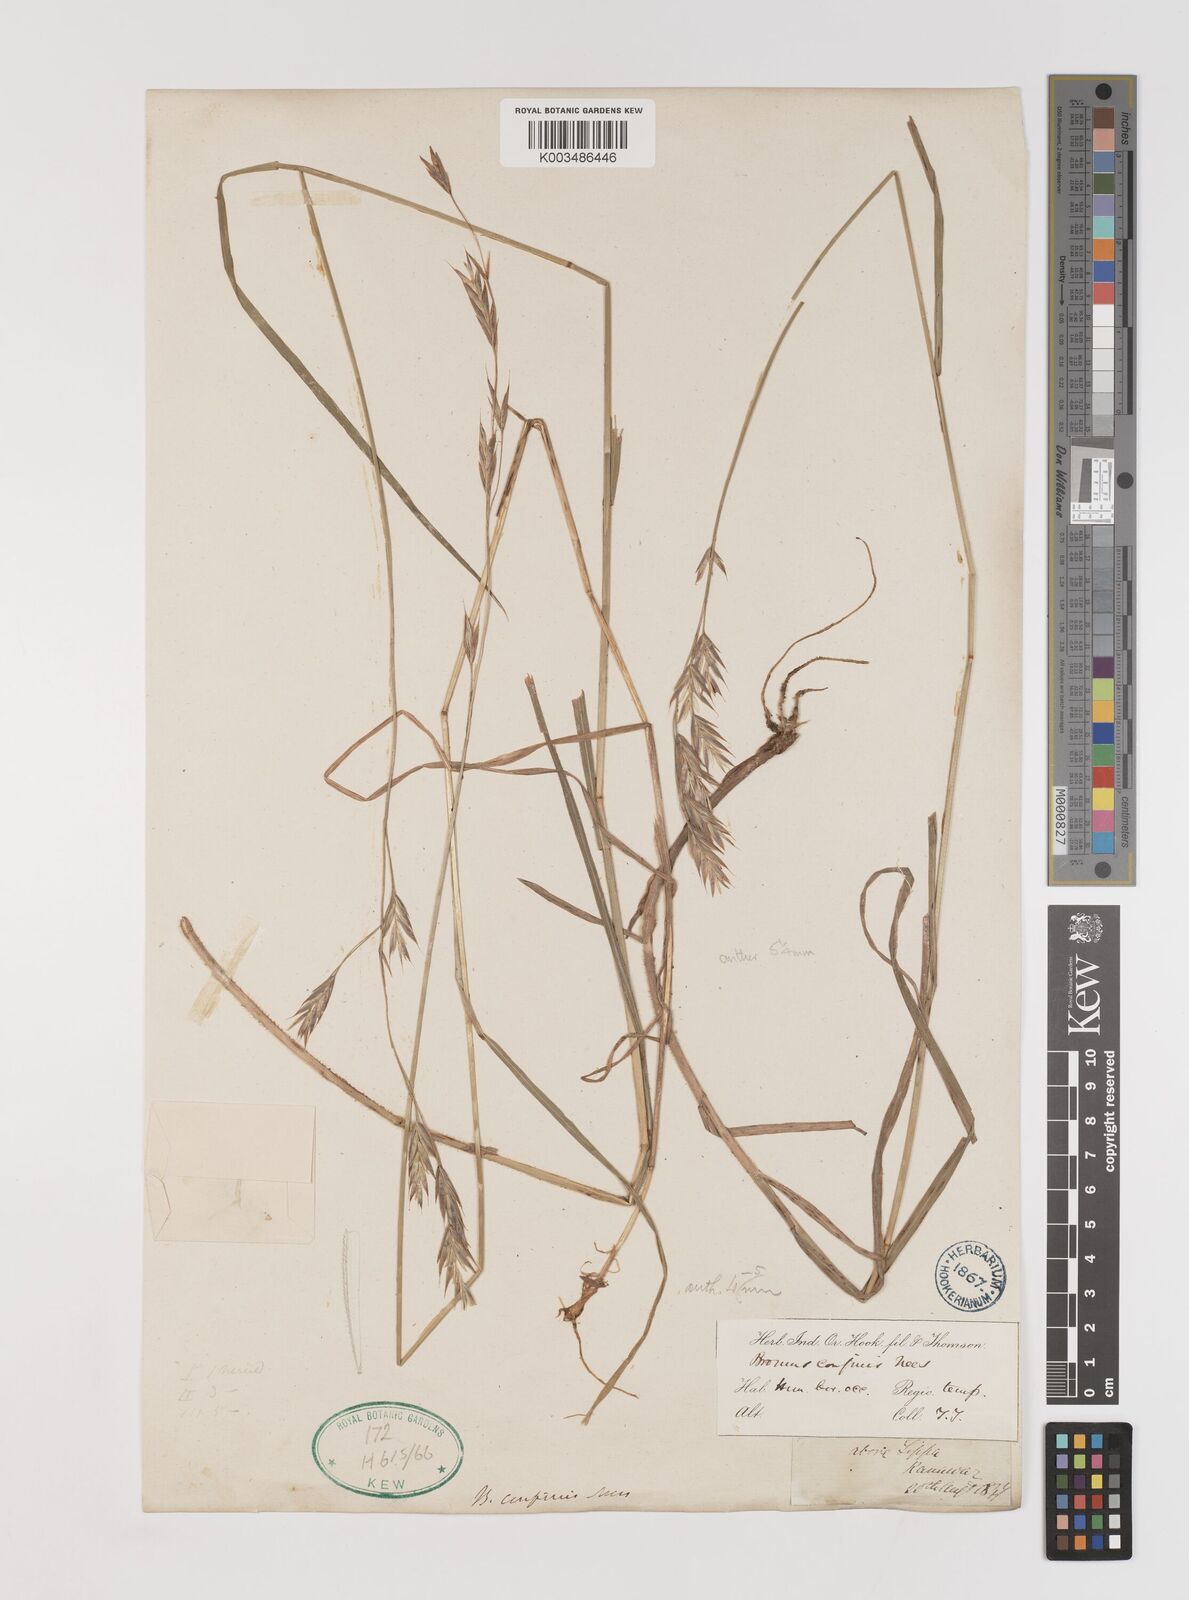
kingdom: Plantae
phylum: Tracheophyta
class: Liliopsida
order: Poales
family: Poaceae
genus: Bromus
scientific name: Bromus confinis
